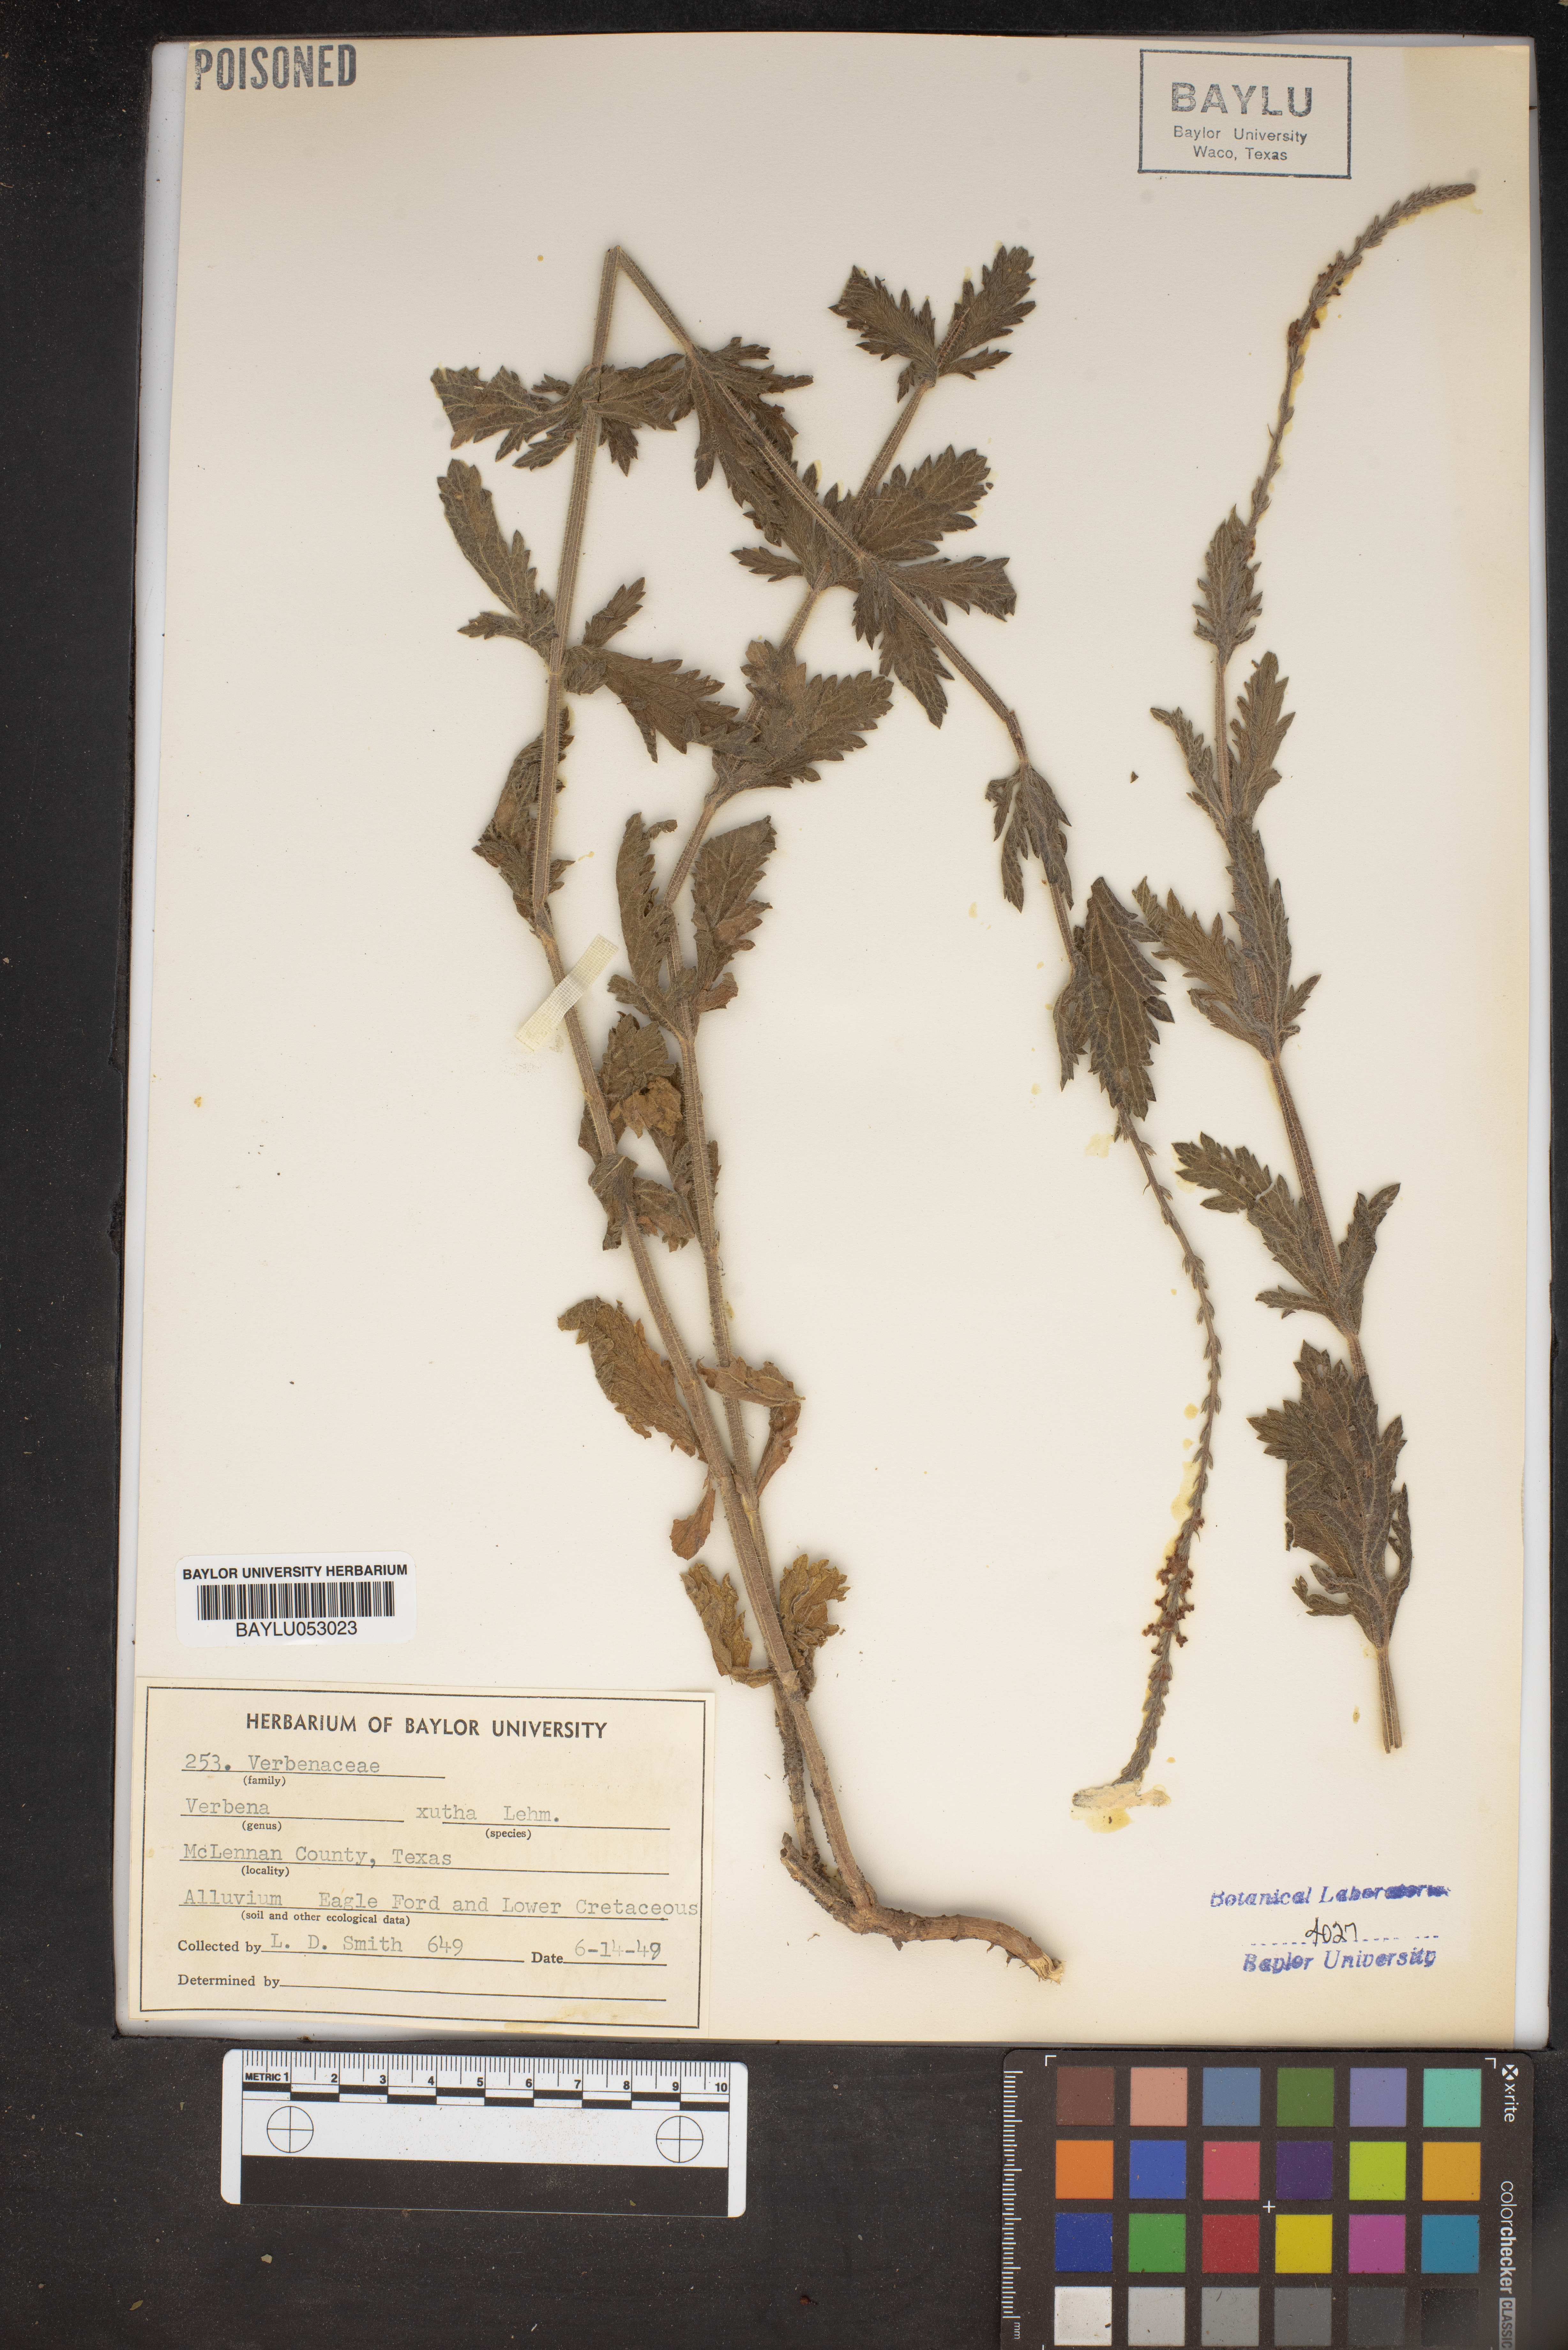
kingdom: Plantae
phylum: Tracheophyta
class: Magnoliopsida
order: Lamiales
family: Verbenaceae
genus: Verbena
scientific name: Verbena xutha
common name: Gulf vervain
